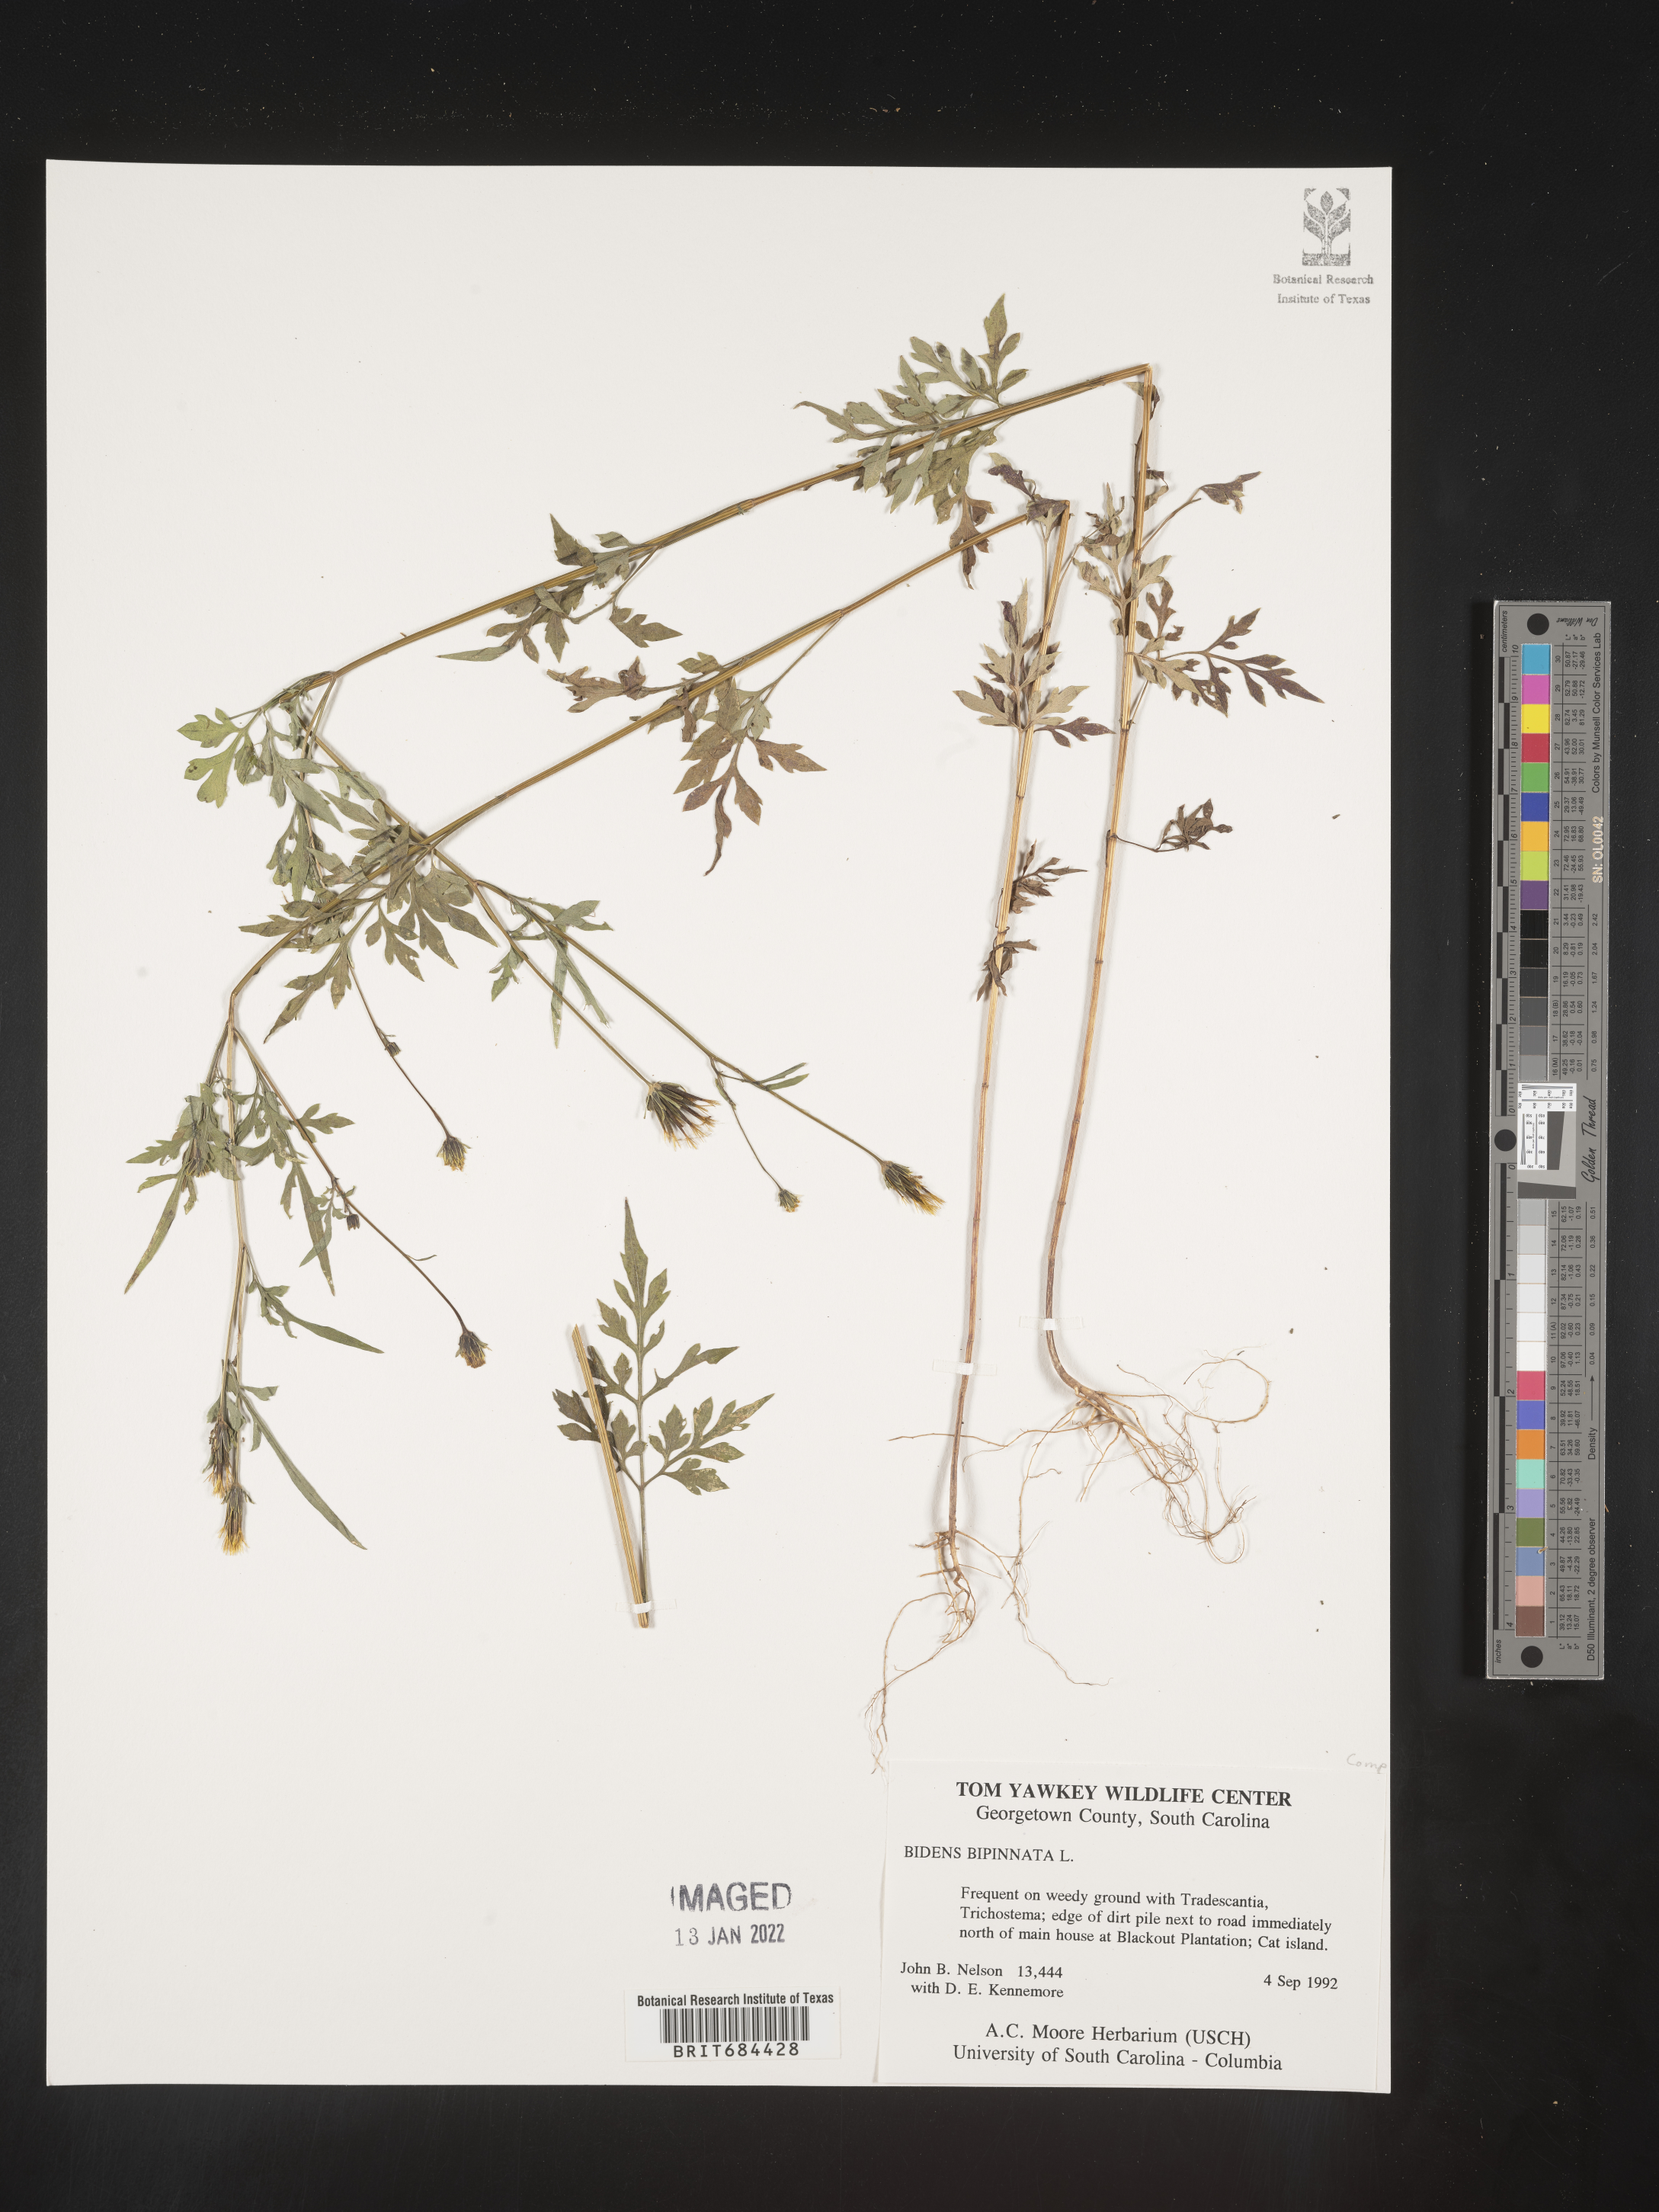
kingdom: Plantae
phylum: Tracheophyta
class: Magnoliopsida
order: Asterales
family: Asteraceae
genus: Bidens
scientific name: Bidens bipinnata
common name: Spanish-needles
